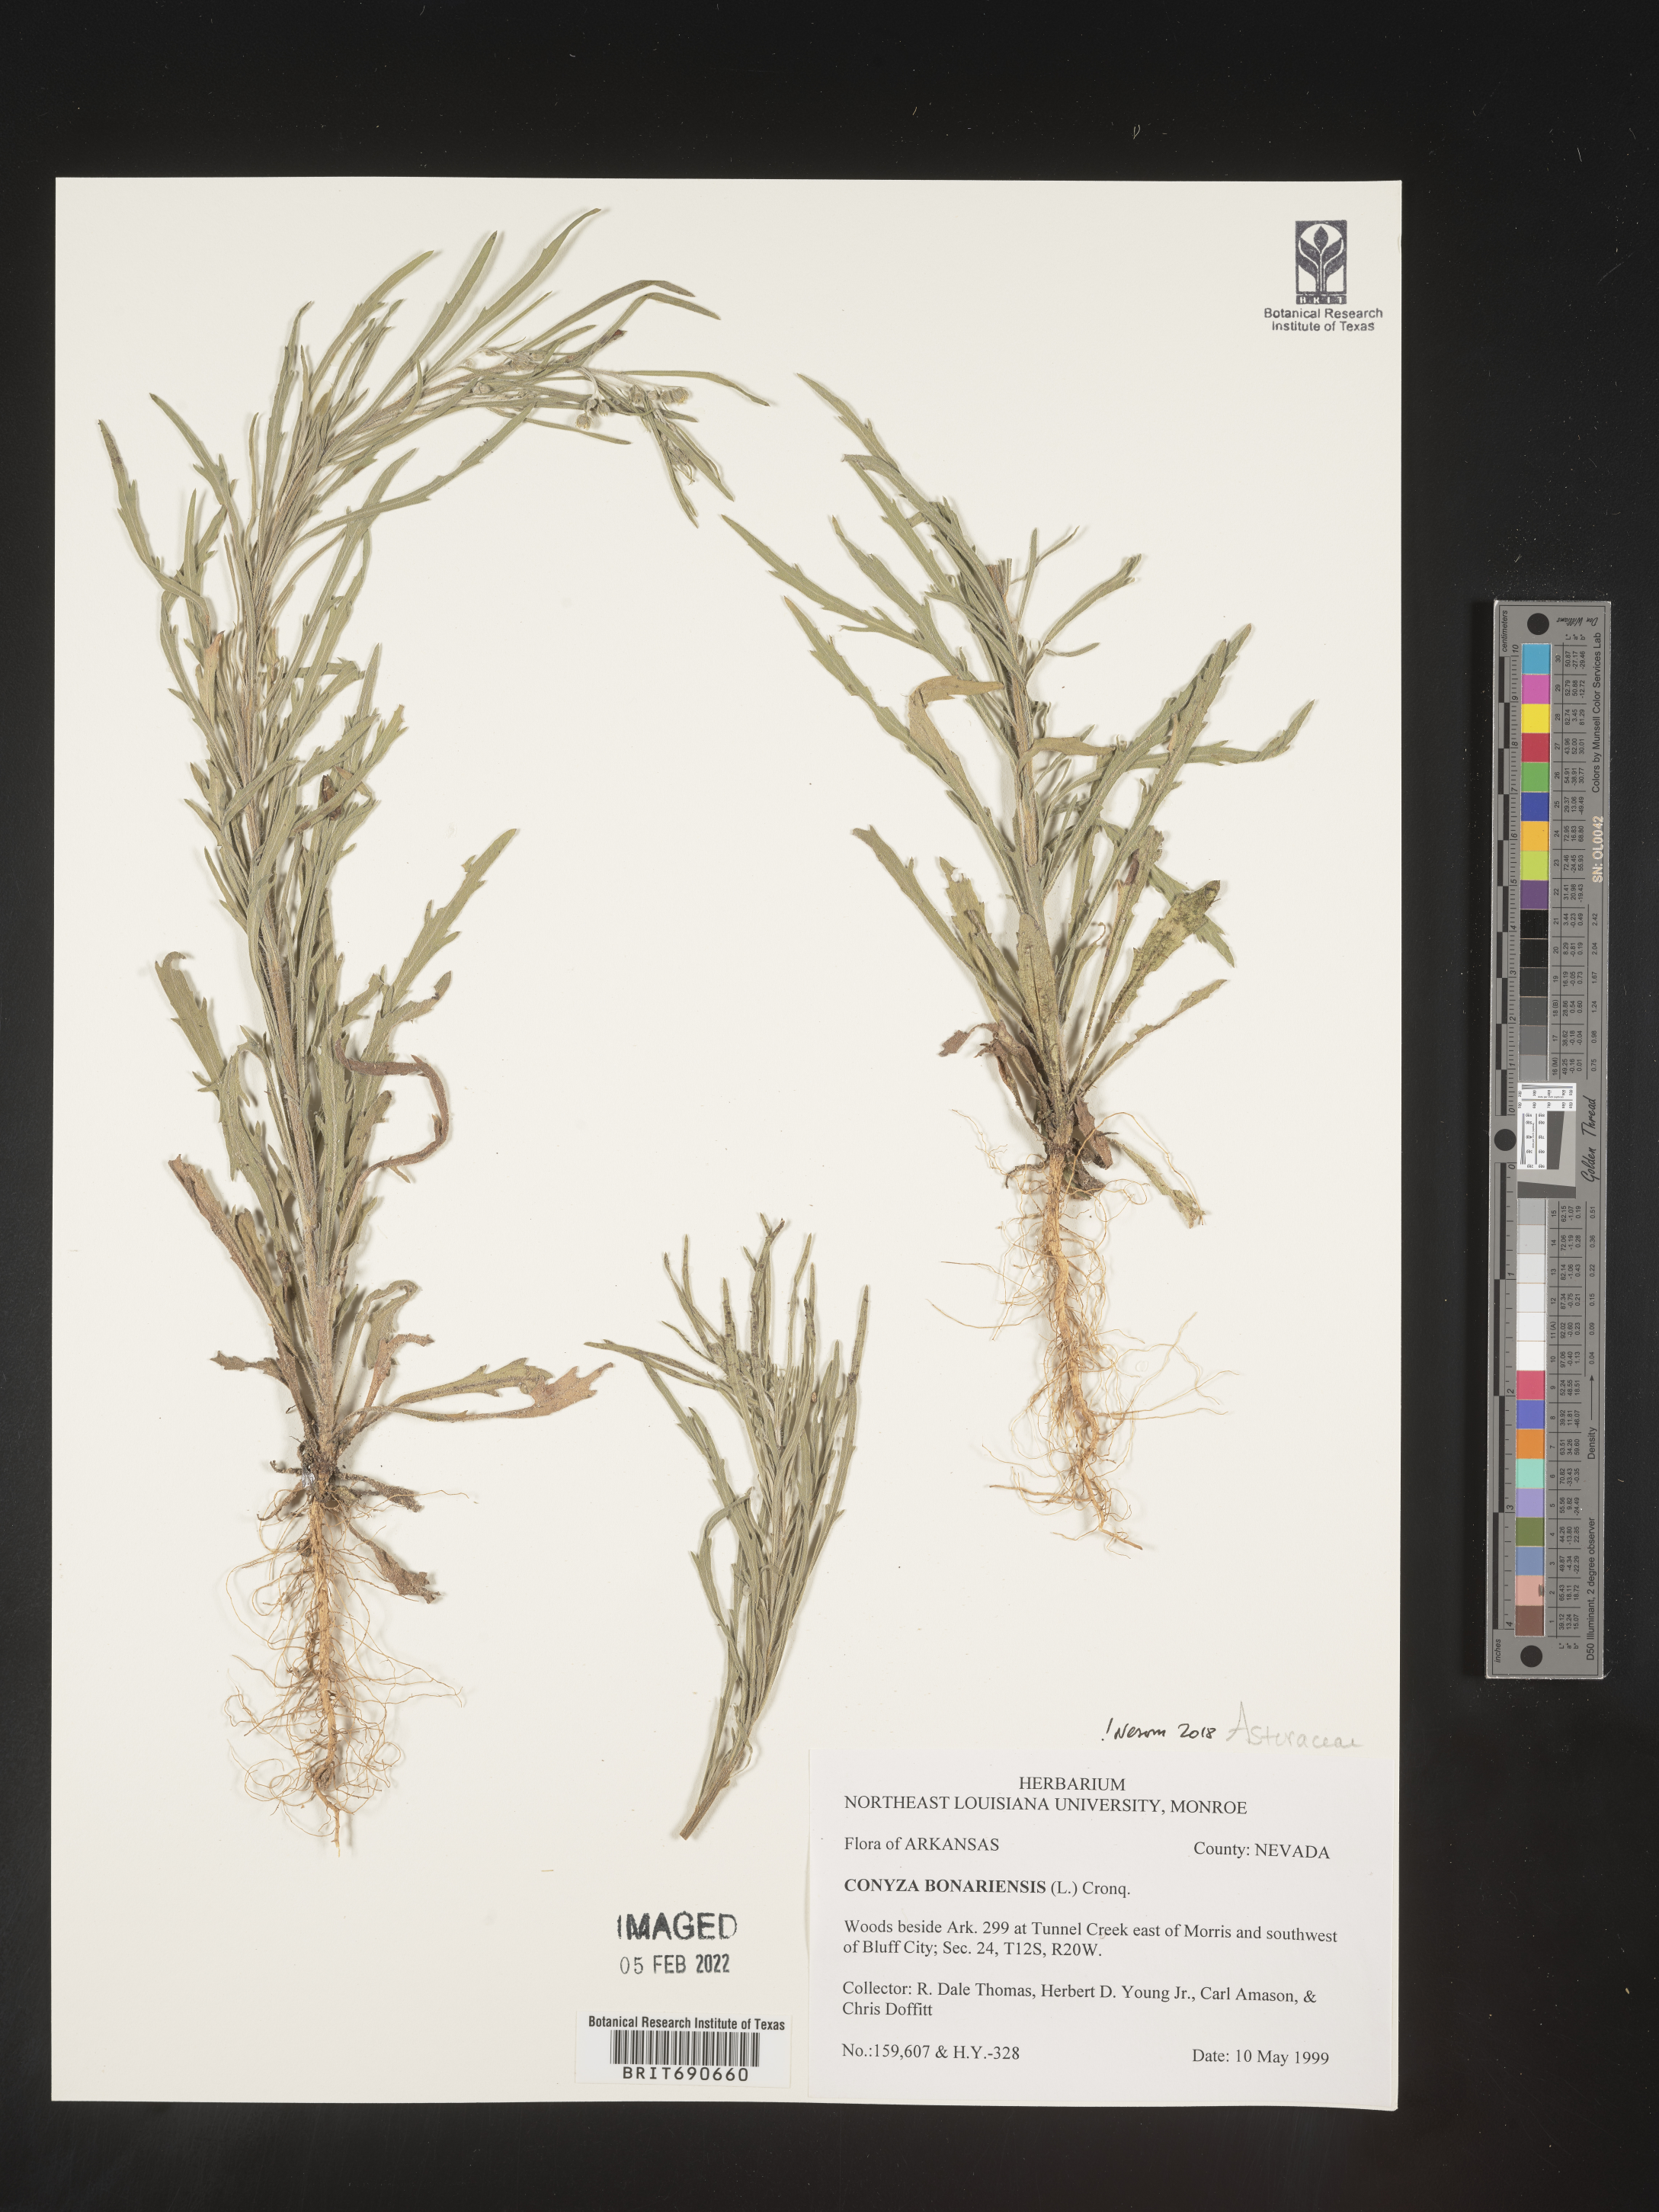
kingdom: Plantae
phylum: Tracheophyta
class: Magnoliopsida
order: Asterales
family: Asteraceae
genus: Erigeron
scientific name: Erigeron bonariensis
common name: Argentine fleabane
